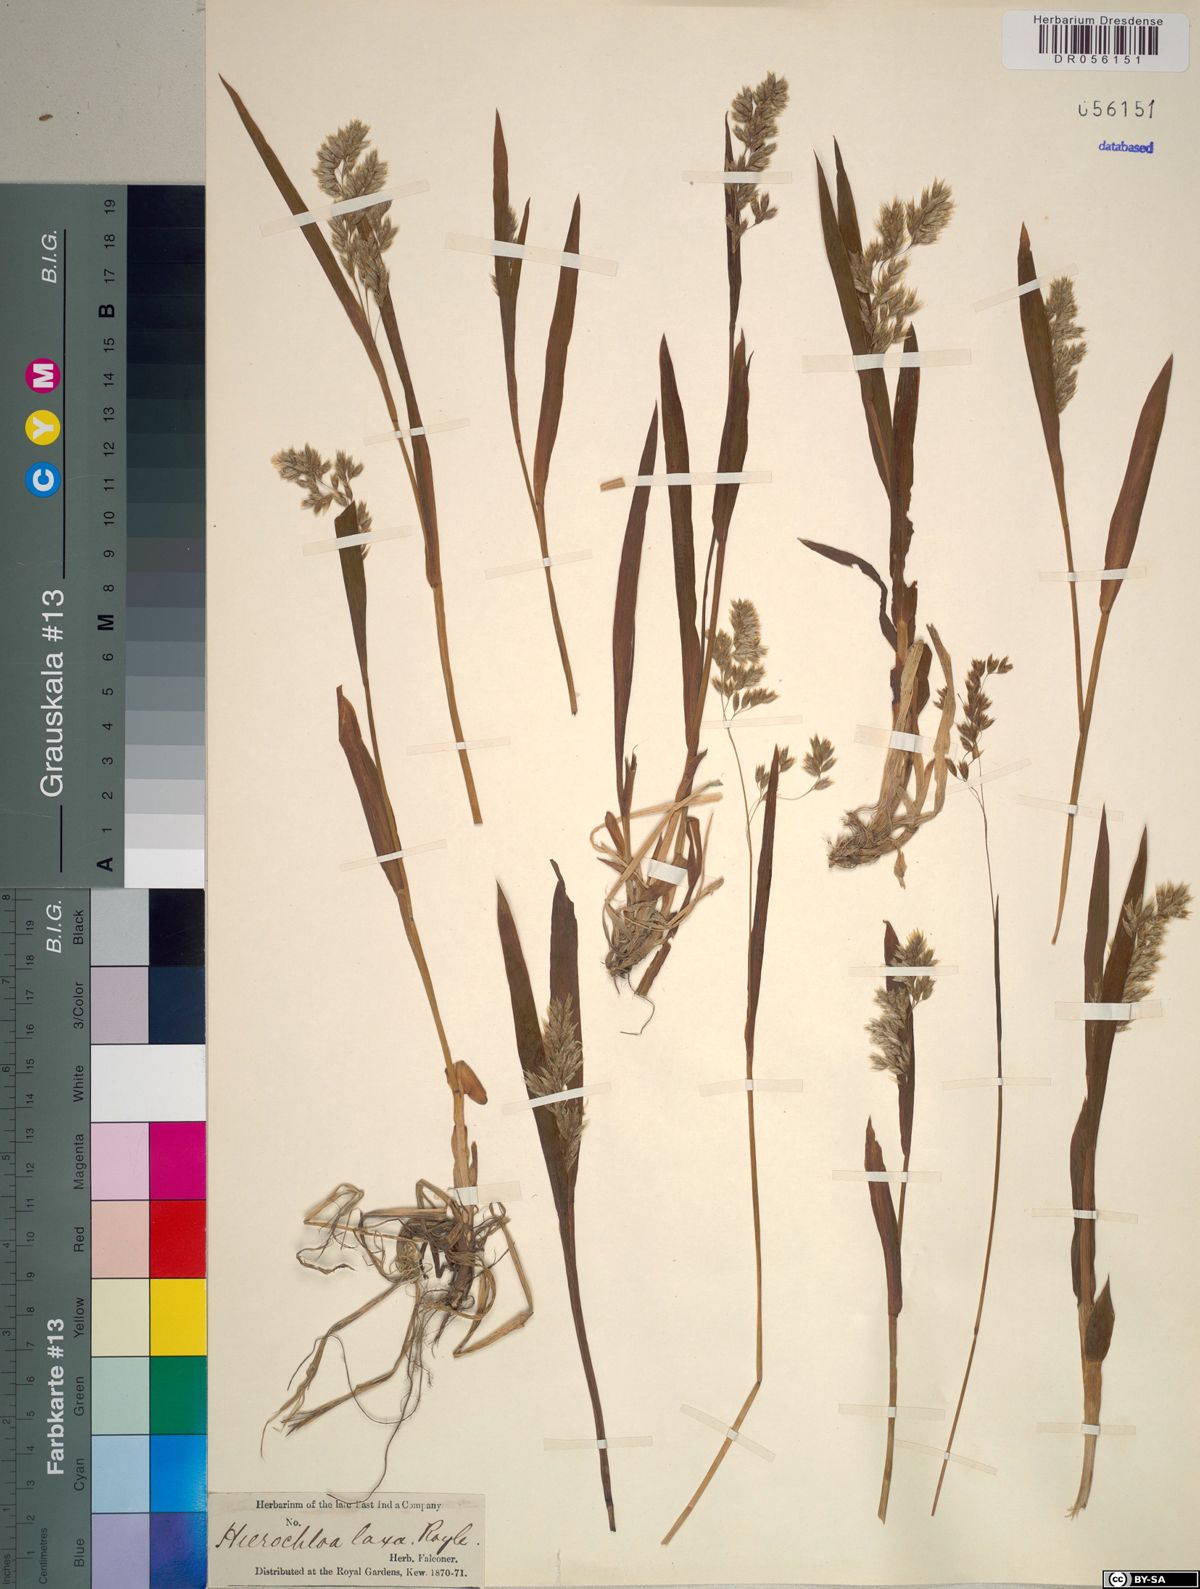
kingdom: Plantae
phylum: Tracheophyta
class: Liliopsida
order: Poales
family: Poaceae
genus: Anthoxanthum
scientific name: Anthoxanthum laxum
